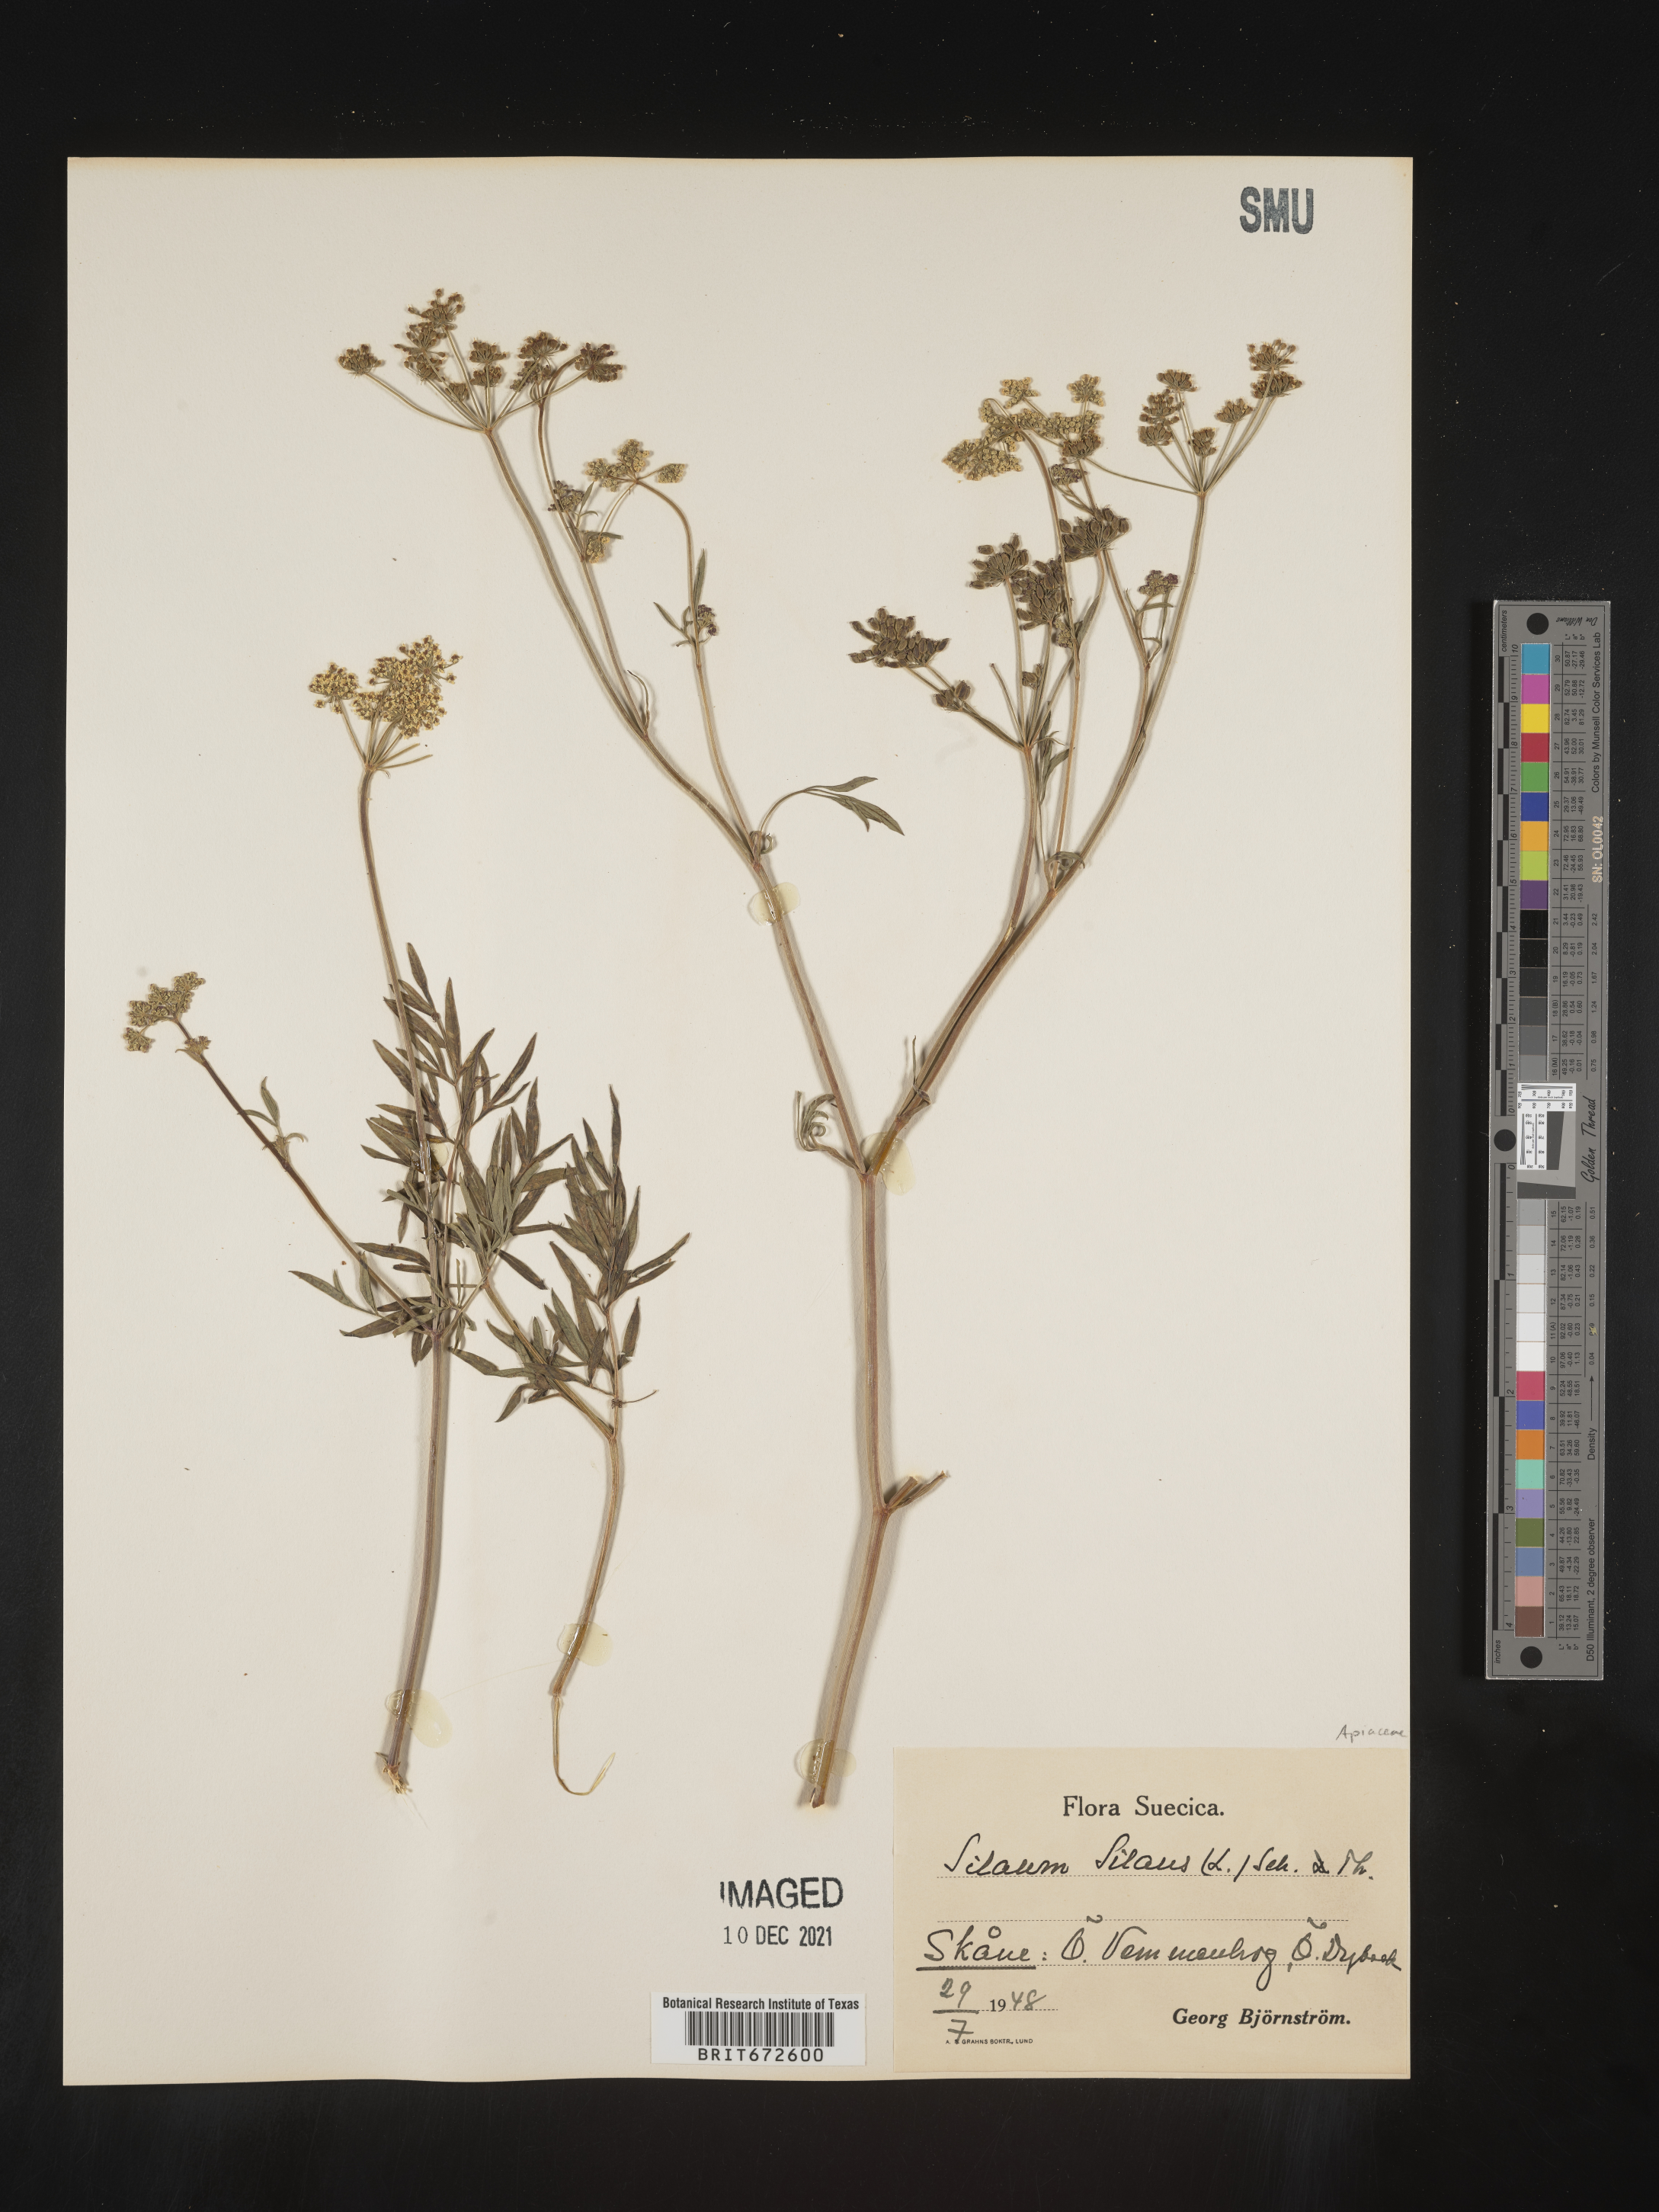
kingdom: Plantae
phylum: Tracheophyta
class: Magnoliopsida
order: Apiales
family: Apiaceae
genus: Silaum
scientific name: Silaum
